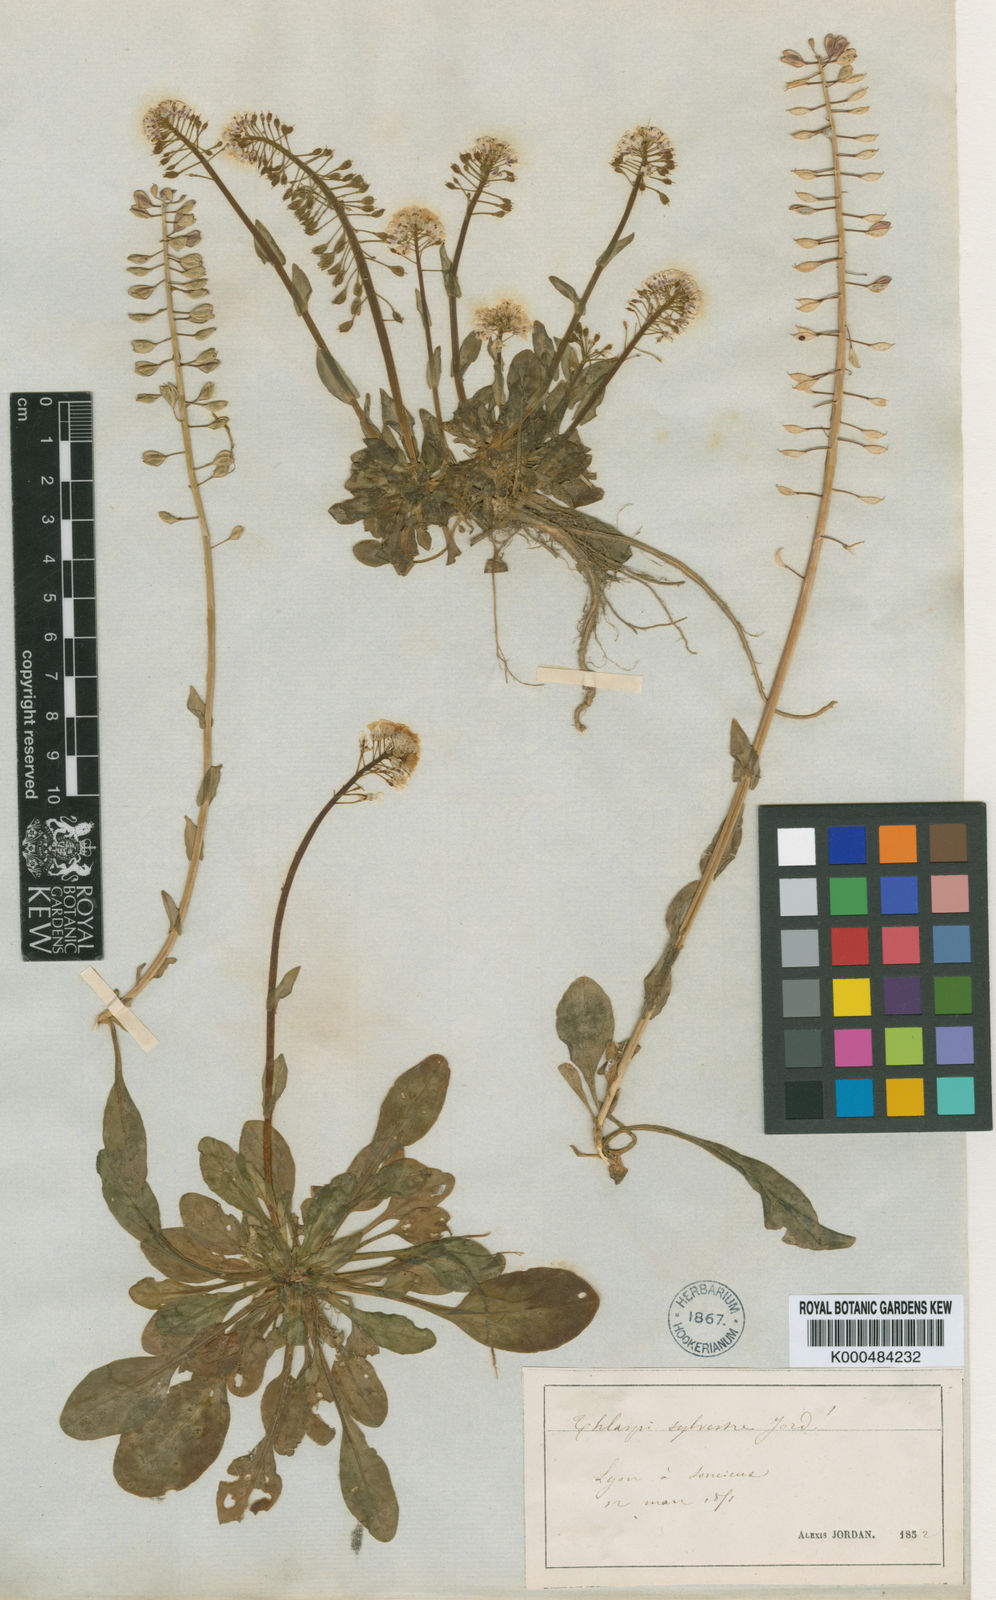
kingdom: Plantae
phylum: Tracheophyta
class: Magnoliopsida
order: Brassicales
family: Brassicaceae
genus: Noccaea
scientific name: Noccaea alpestris
